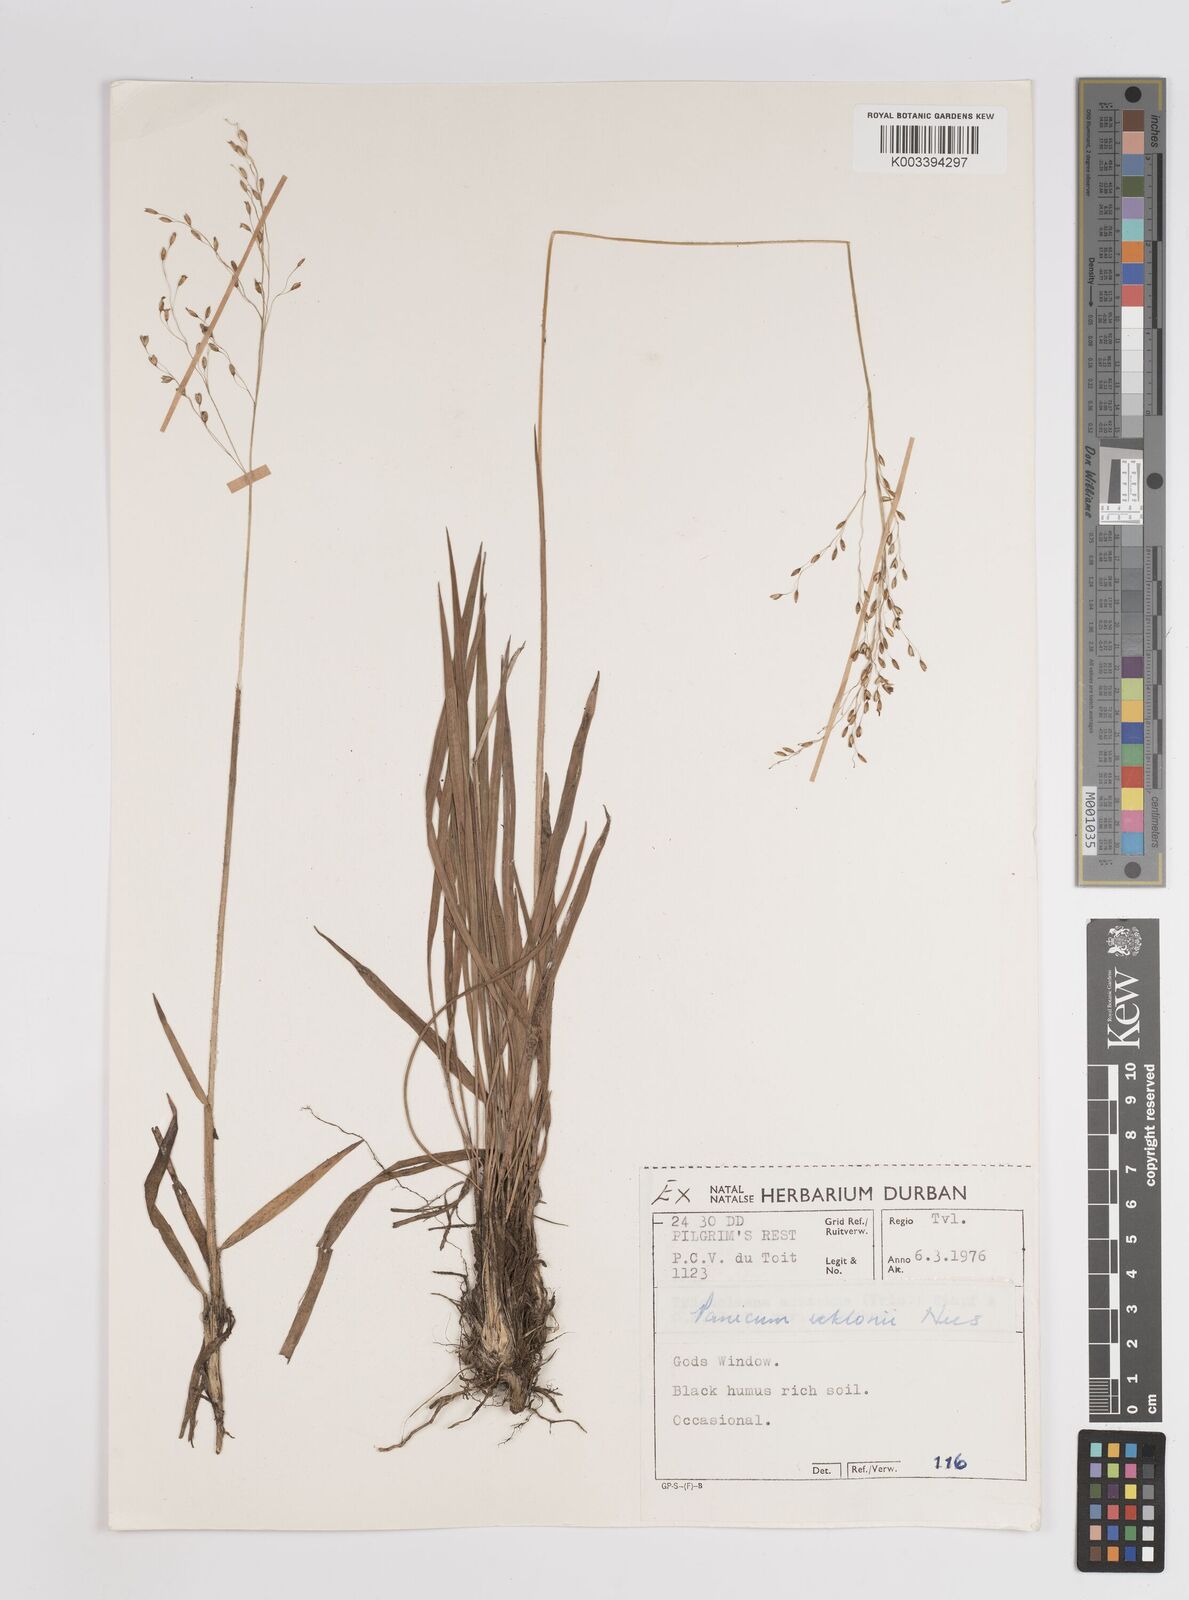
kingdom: Plantae
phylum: Tracheophyta
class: Liliopsida
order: Poales
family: Poaceae
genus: Adenochloa
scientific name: Adenochloa ecklonii
